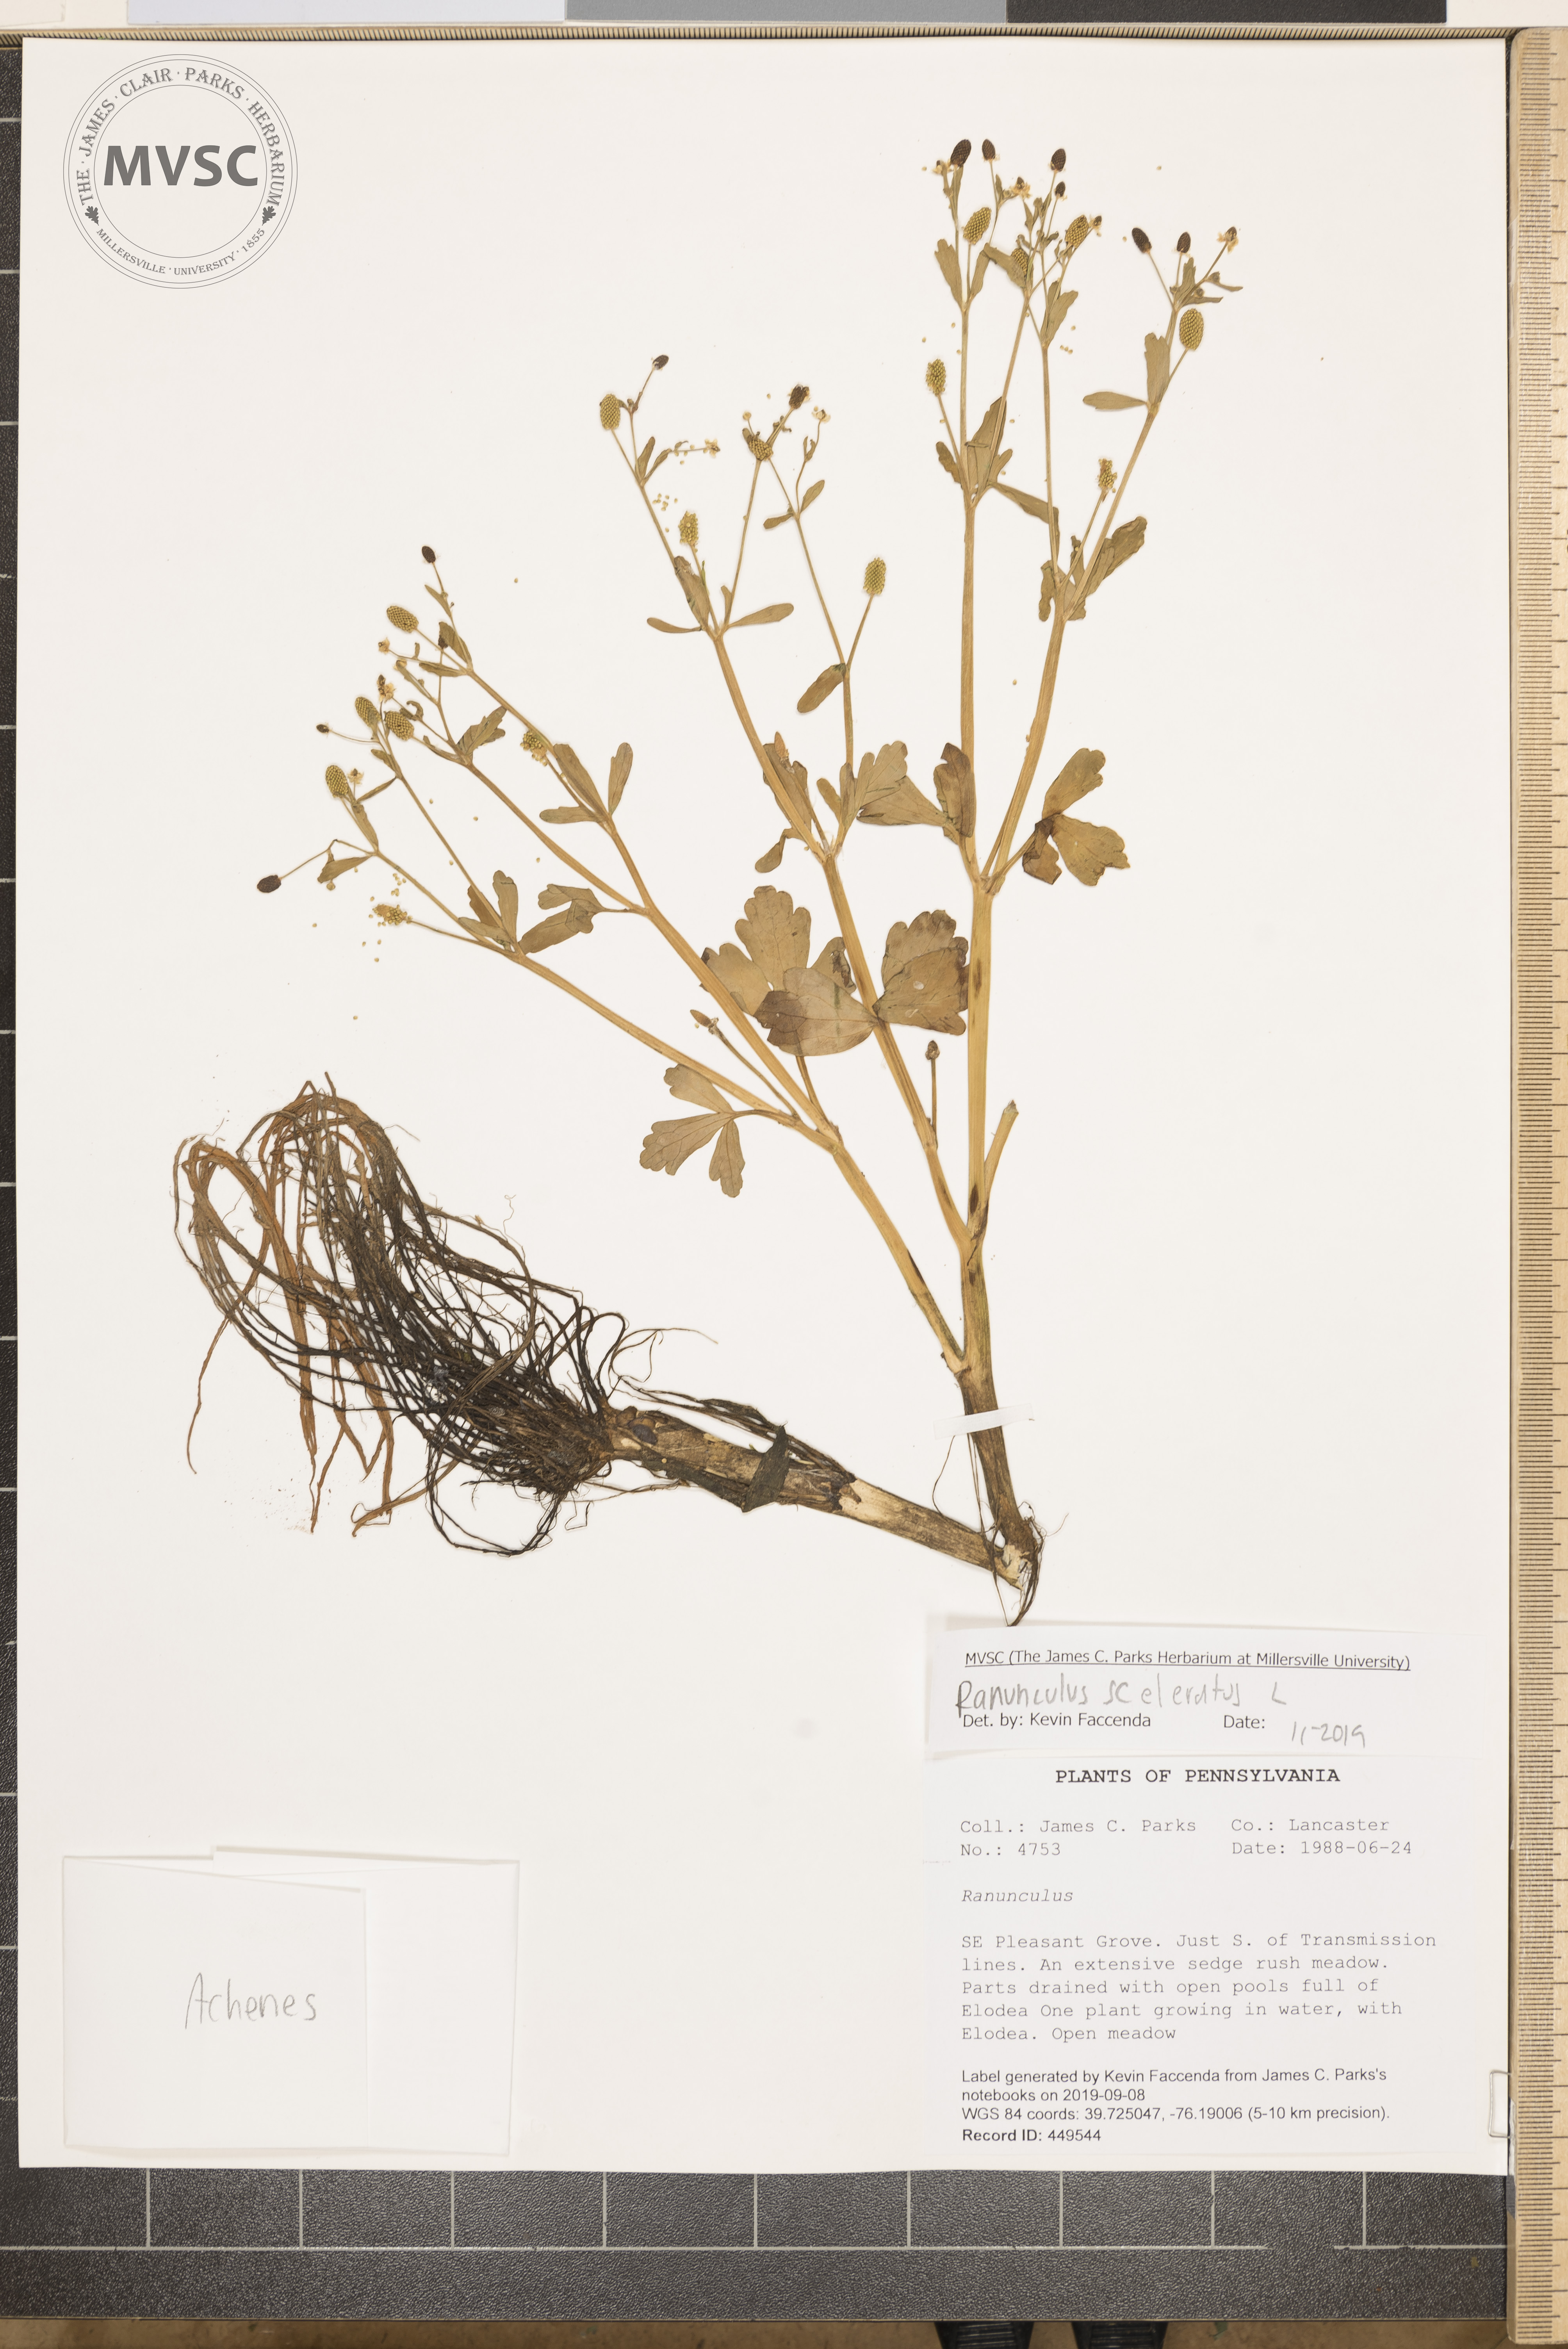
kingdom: Plantae
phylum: Tracheophyta
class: Magnoliopsida
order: Ranunculales
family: Ranunculaceae
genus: Ranunculus
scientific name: Ranunculus sceleratus
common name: Celery-leaved buttercup
